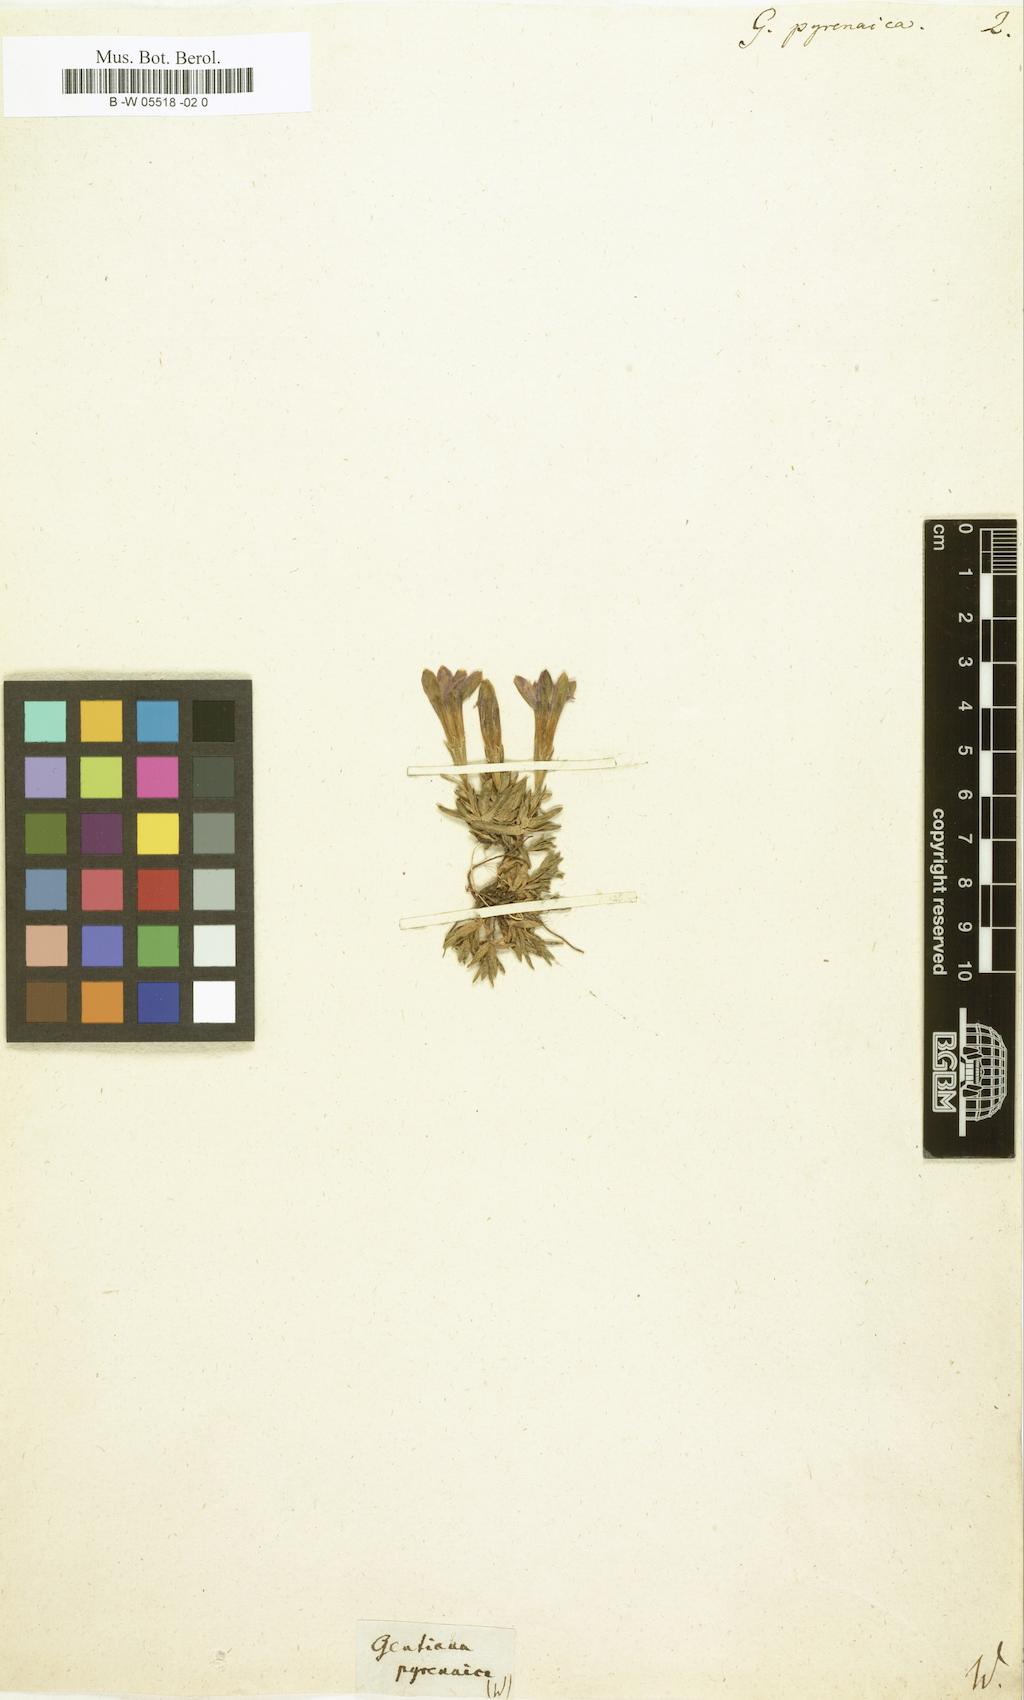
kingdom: Plantae
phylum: Tracheophyta
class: Magnoliopsida
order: Gentianales
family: Gentianaceae
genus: Gentiana
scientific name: Gentiana pyrenaica
